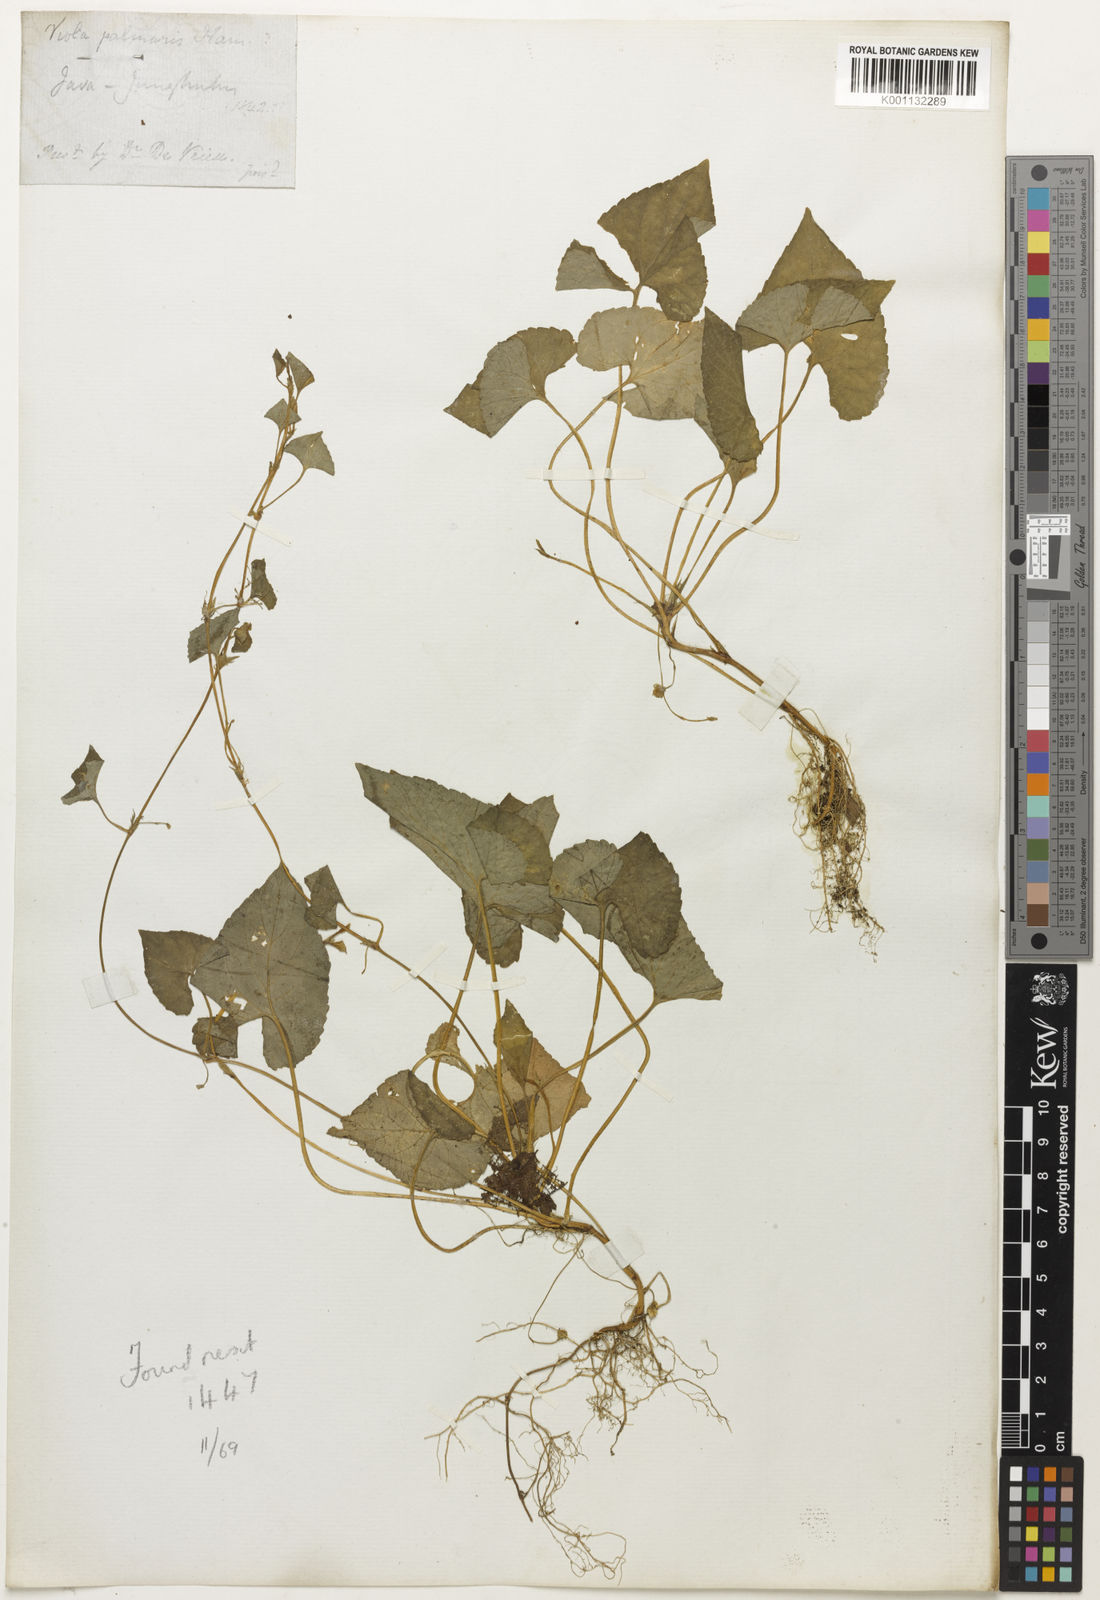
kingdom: Plantae
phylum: Tracheophyta
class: Magnoliopsida
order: Malpighiales
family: Violaceae
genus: Viola
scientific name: Viola
